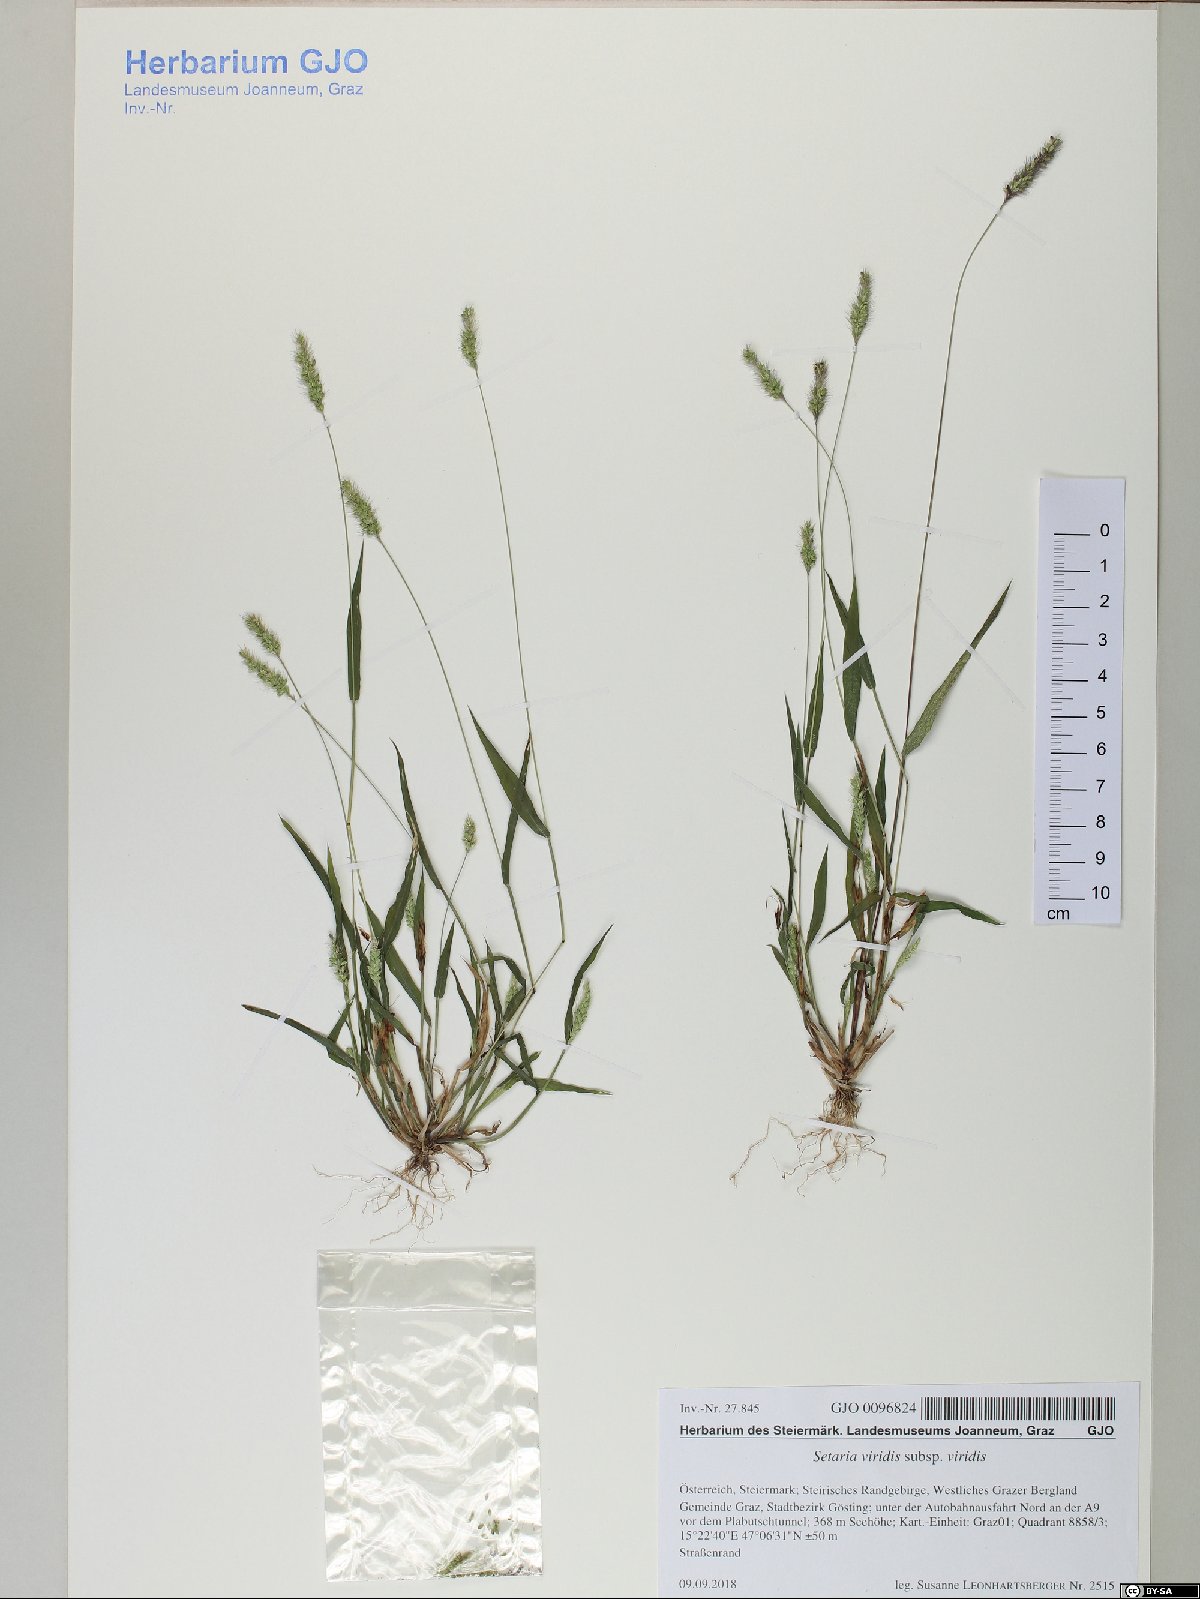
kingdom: Plantae
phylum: Tracheophyta
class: Liliopsida
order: Poales
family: Poaceae
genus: Setaria
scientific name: Setaria viridis
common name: Green bristlegrass
